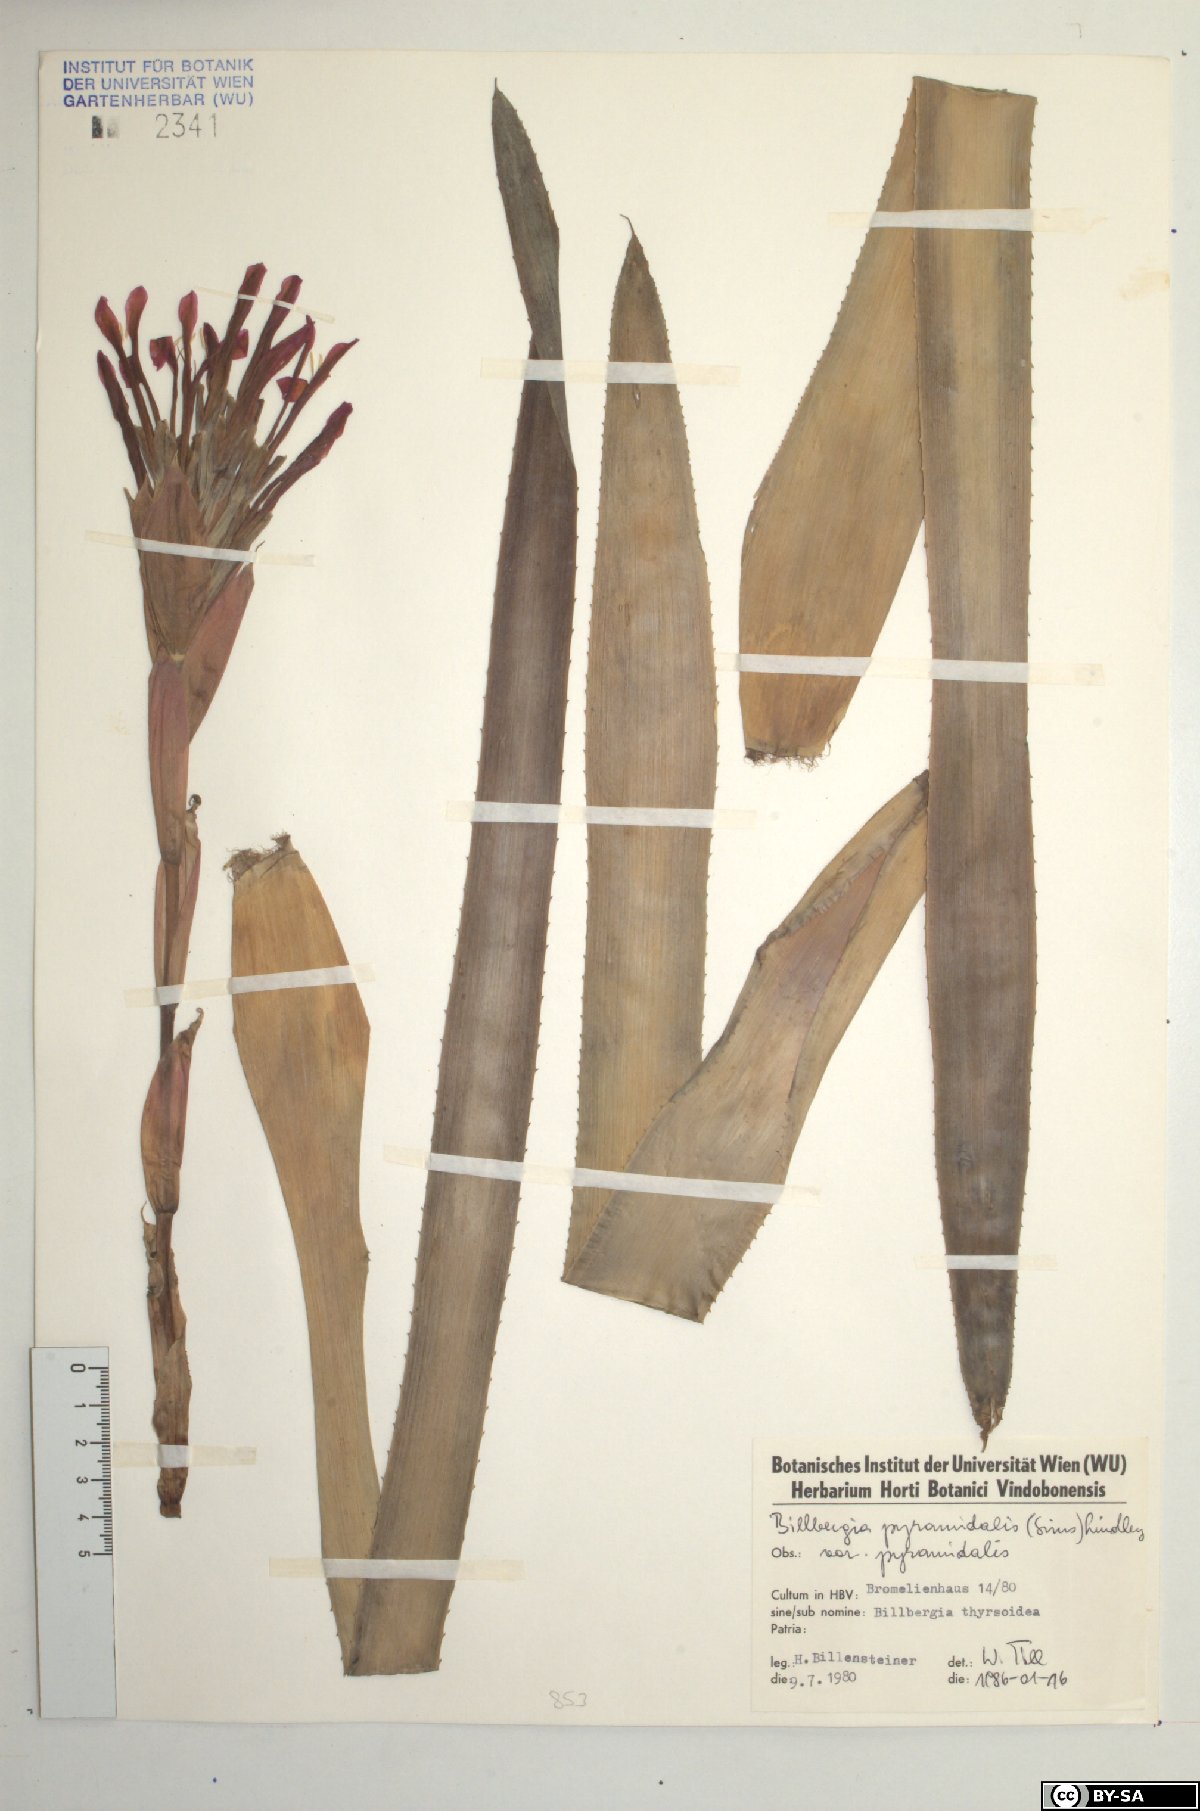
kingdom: Plantae
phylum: Tracheophyta
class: Liliopsida
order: Poales
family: Bromeliaceae
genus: Billbergia
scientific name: Billbergia pyramidalis
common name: Foolproofplant
